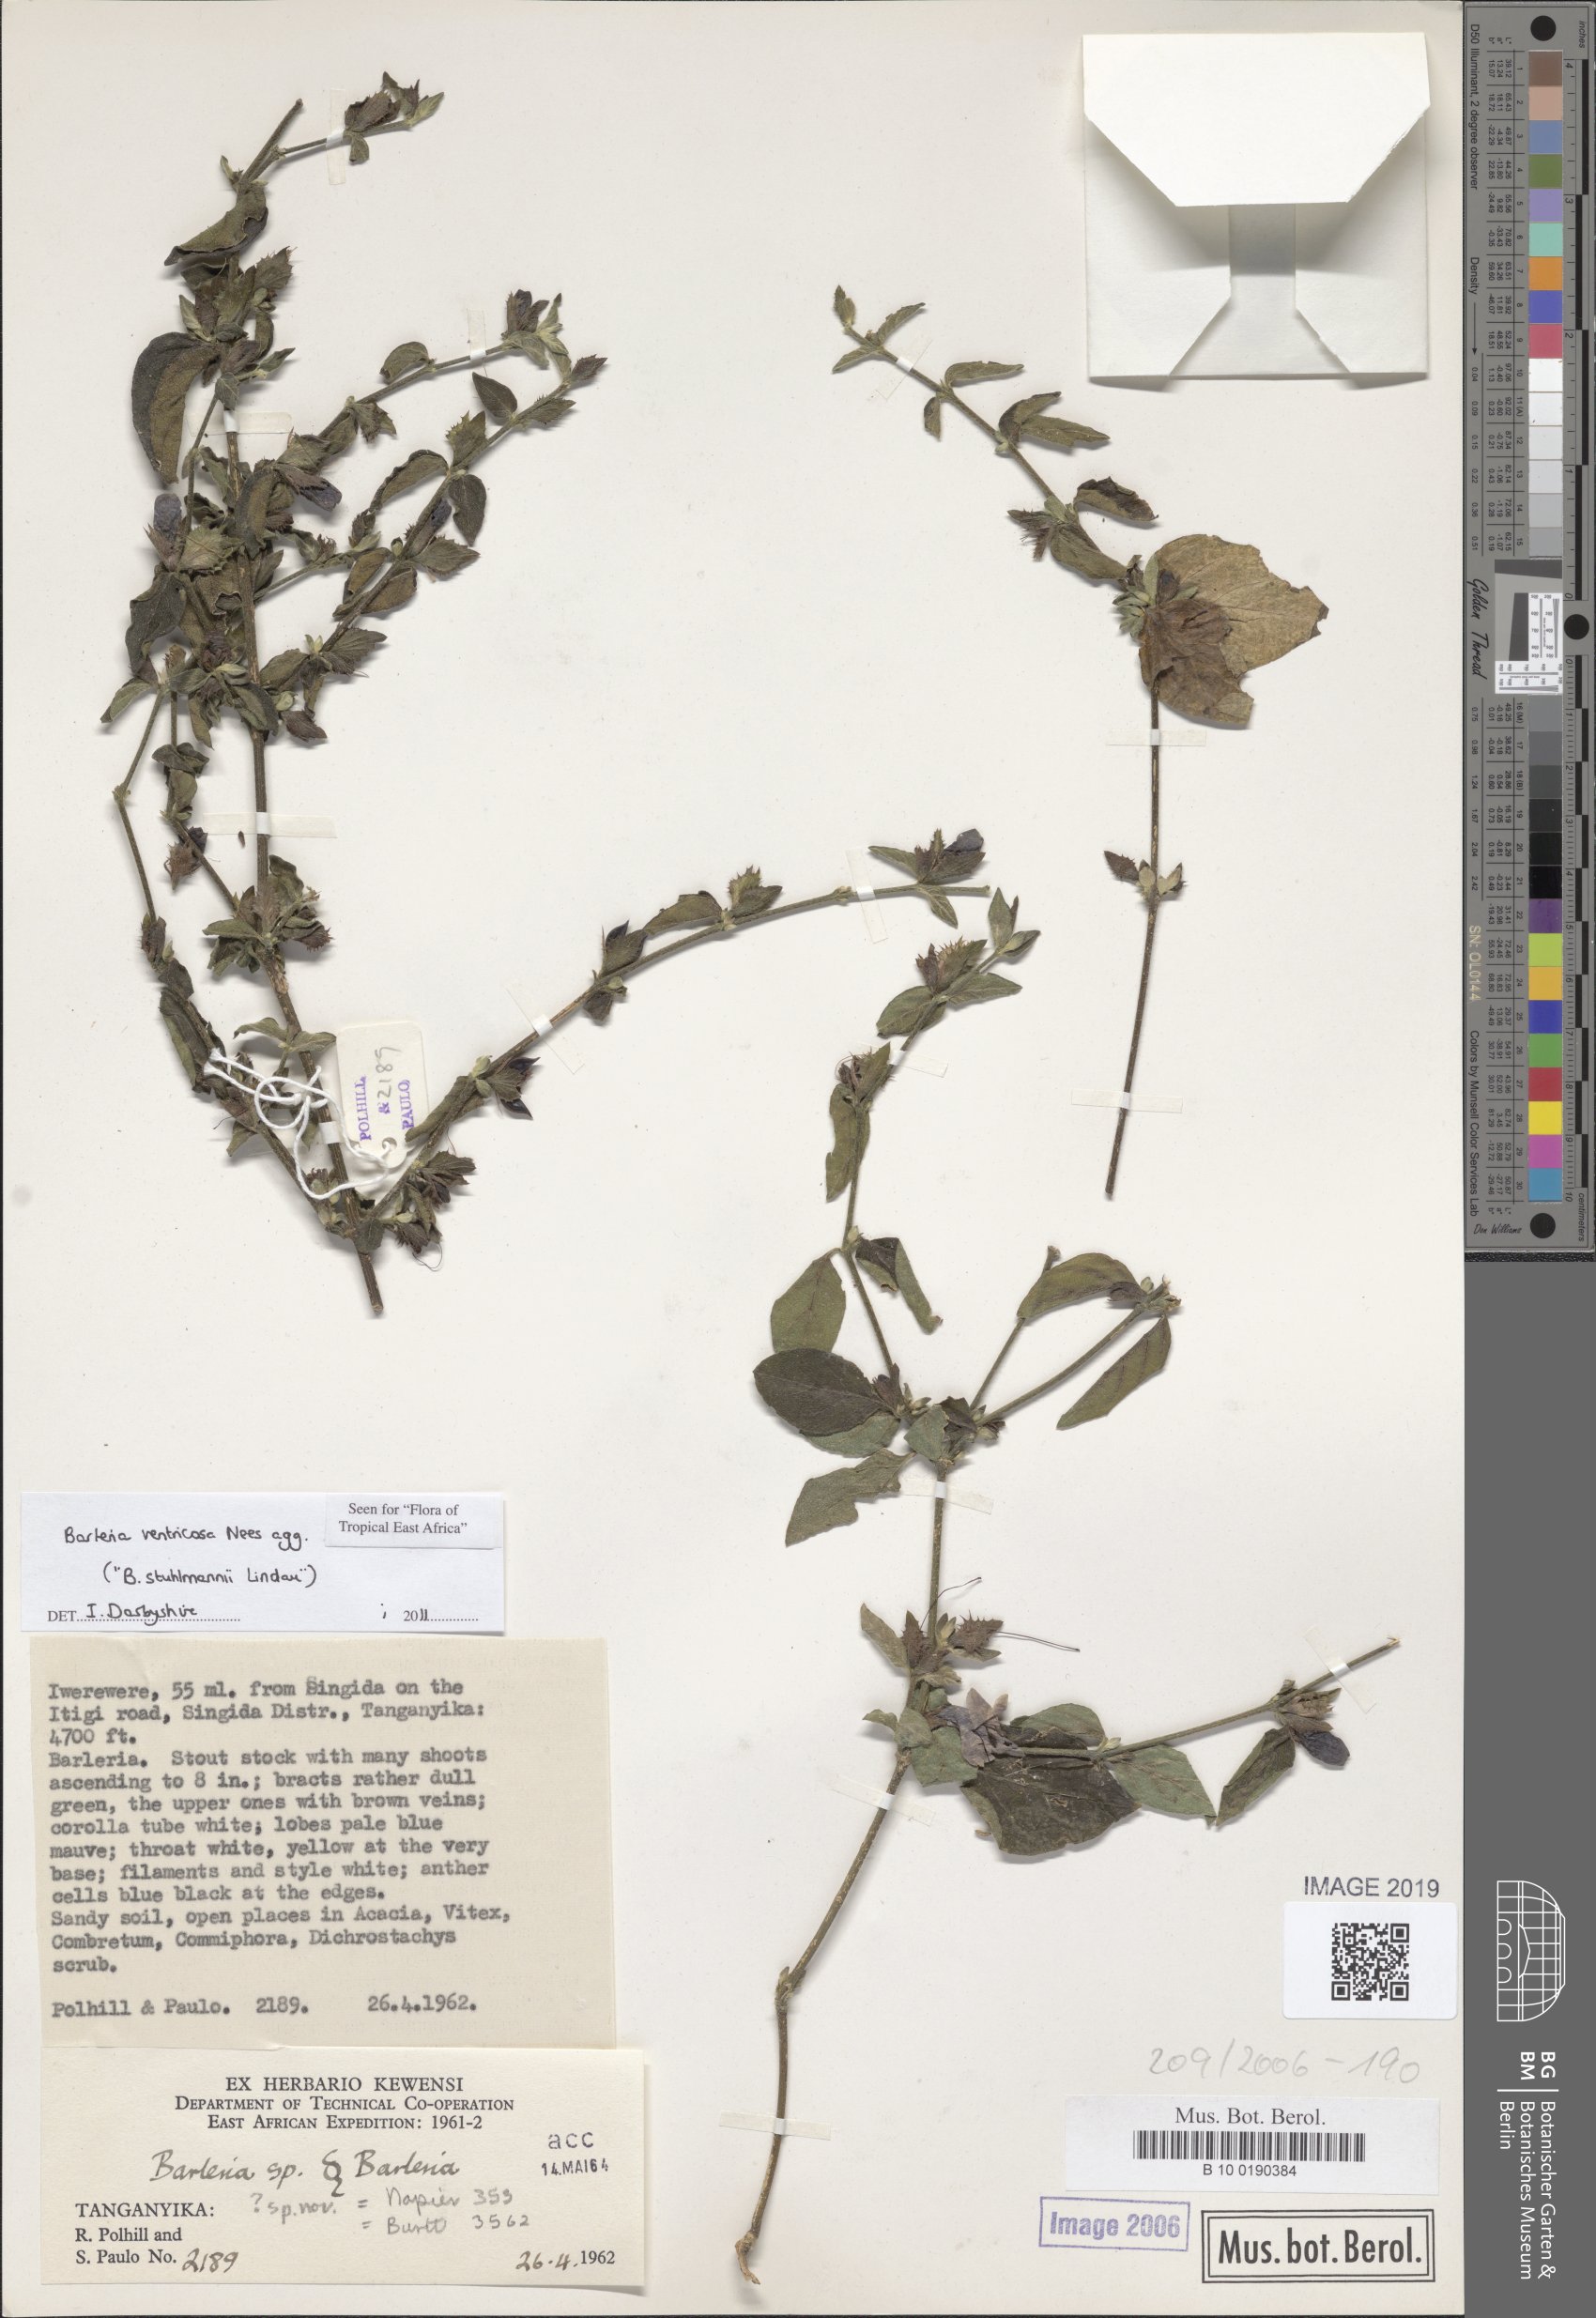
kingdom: Plantae
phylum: Tracheophyta
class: Magnoliopsida
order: Lamiales
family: Acanthaceae
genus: Barleria
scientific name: Barleria ventricosa
